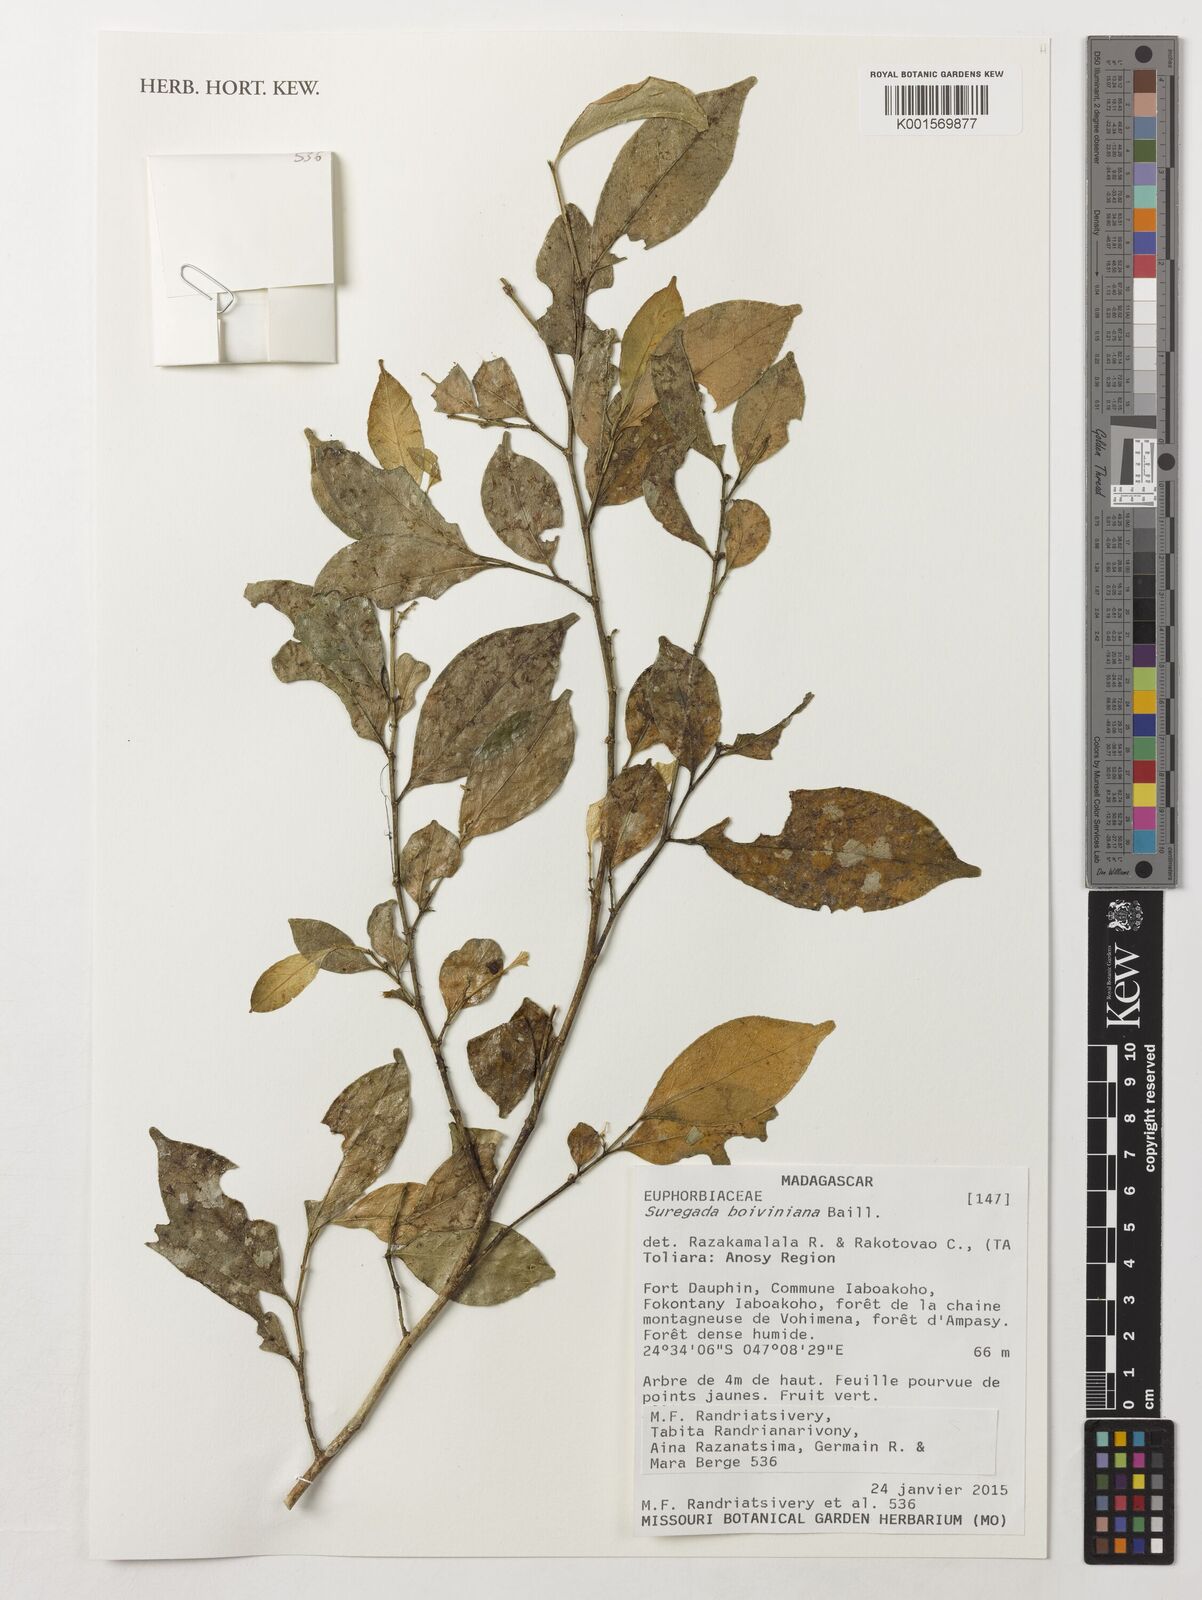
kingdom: Plantae
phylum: Tracheophyta
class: Magnoliopsida
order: Malpighiales
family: Euphorbiaceae
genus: Suregada
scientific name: Suregada boiviniana
